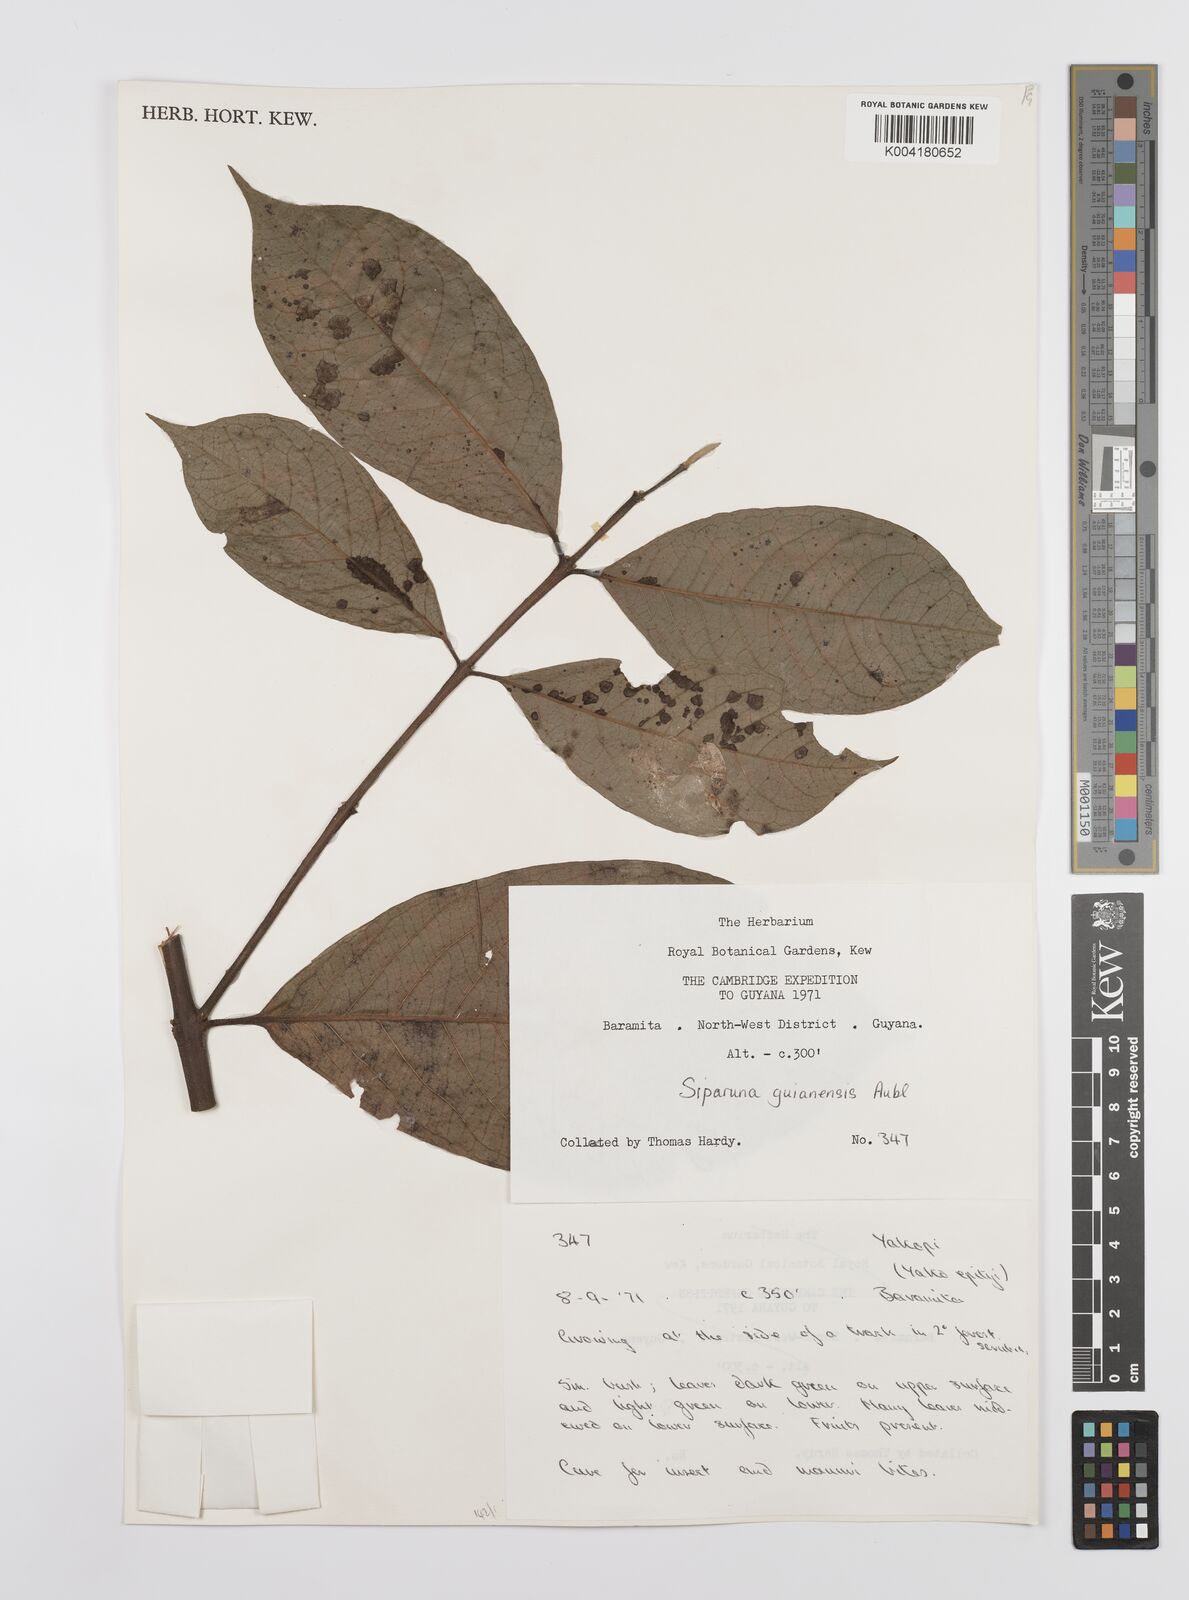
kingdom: Plantae
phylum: Tracheophyta
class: Magnoliopsida
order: Laurales
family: Siparunaceae
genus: Siparuna
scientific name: Siparuna guianensis
